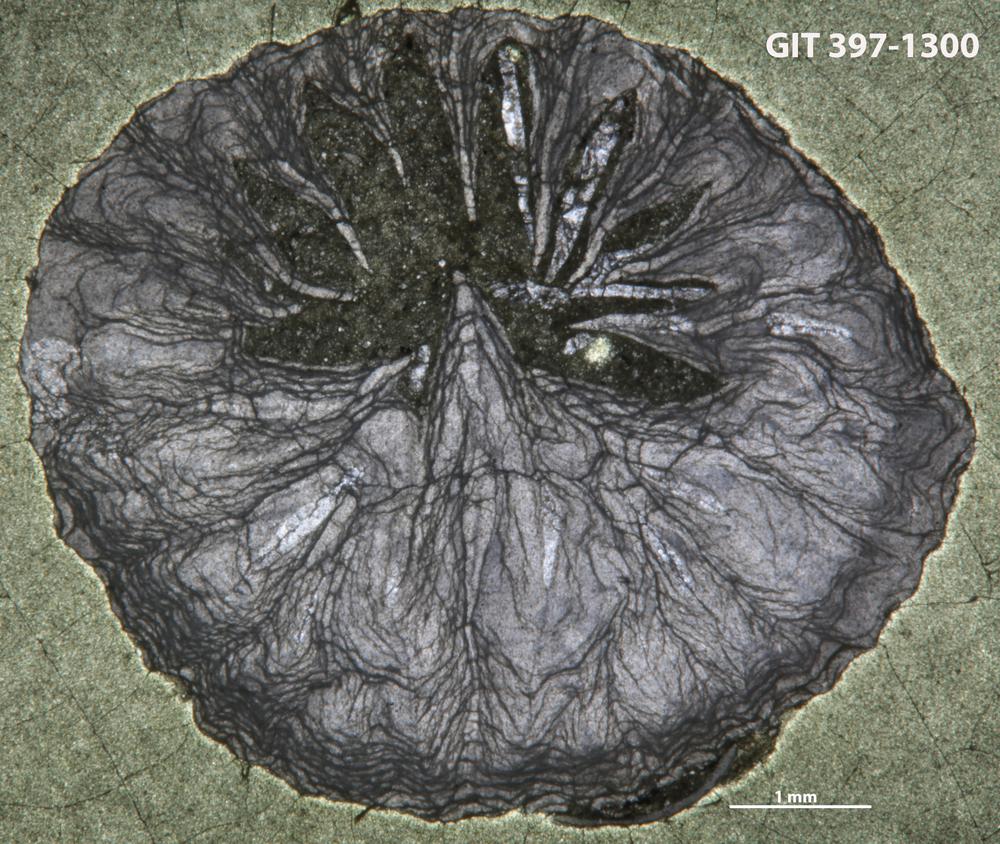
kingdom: Animalia
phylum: Cnidaria
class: Anthozoa
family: Lykophyllidae
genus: Pycnactis
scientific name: Pycnactis
